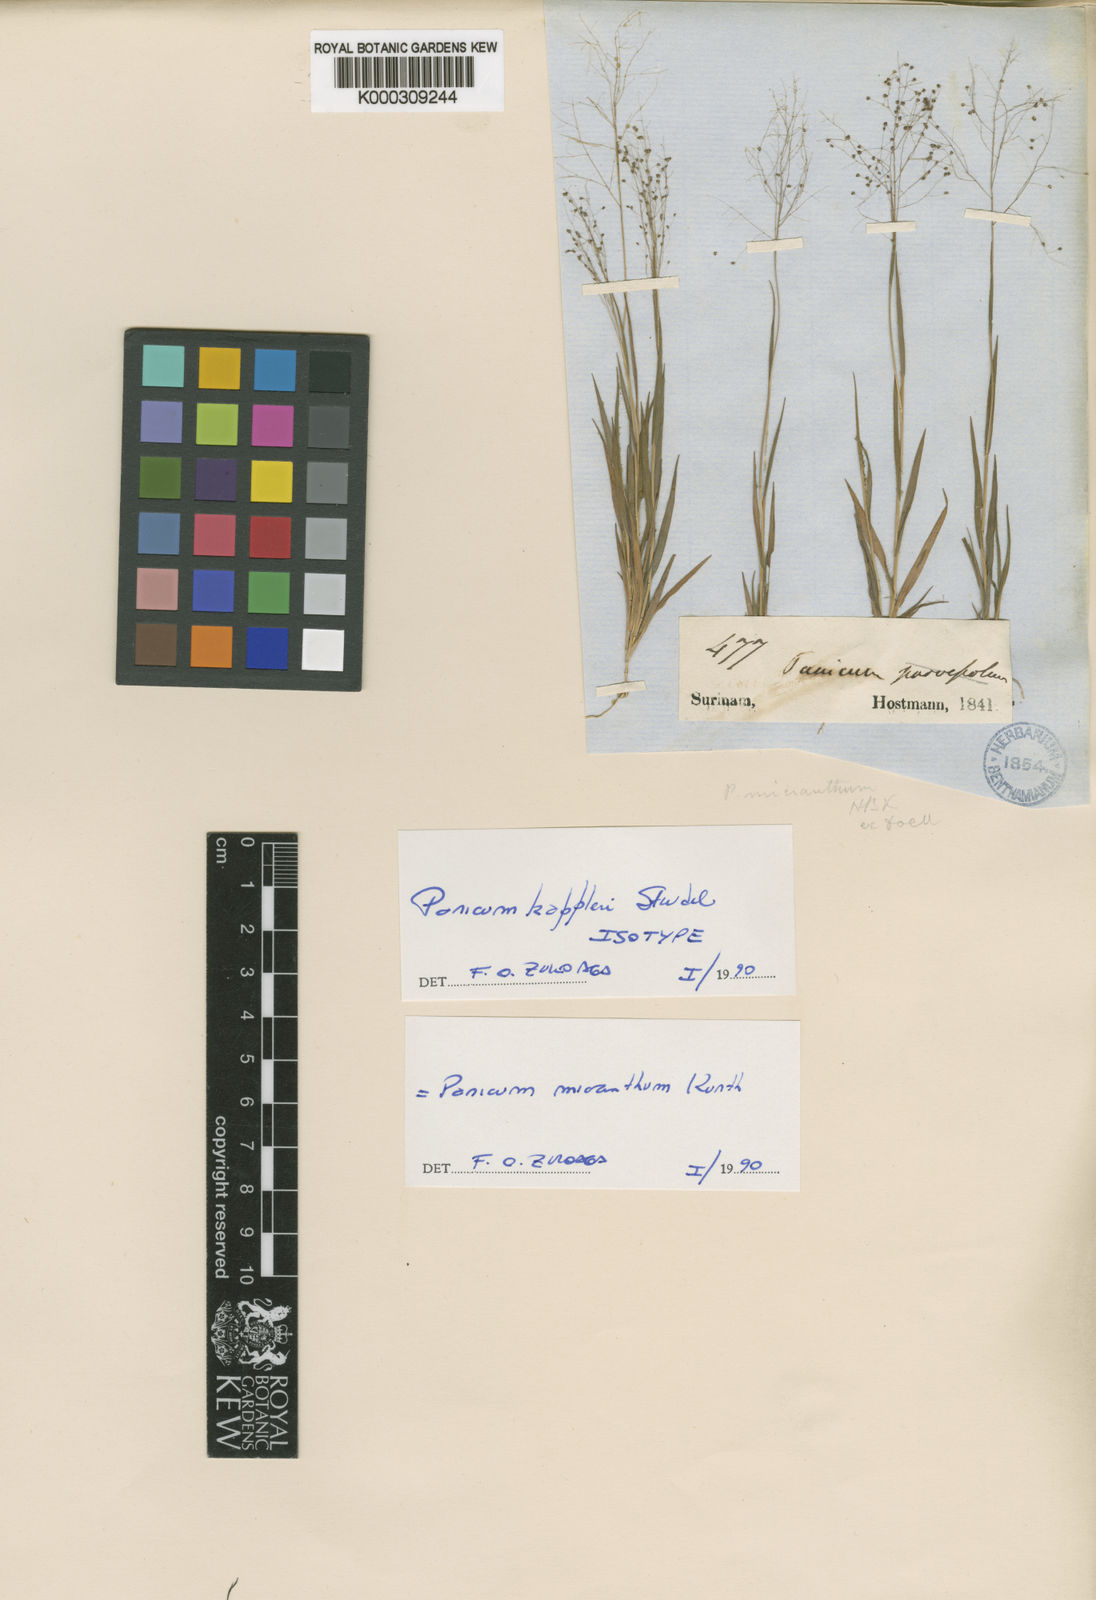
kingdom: Plantae
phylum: Tracheophyta
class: Liliopsida
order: Poales
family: Poaceae
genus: Trichanthecium
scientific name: Trichanthecium micranthum
